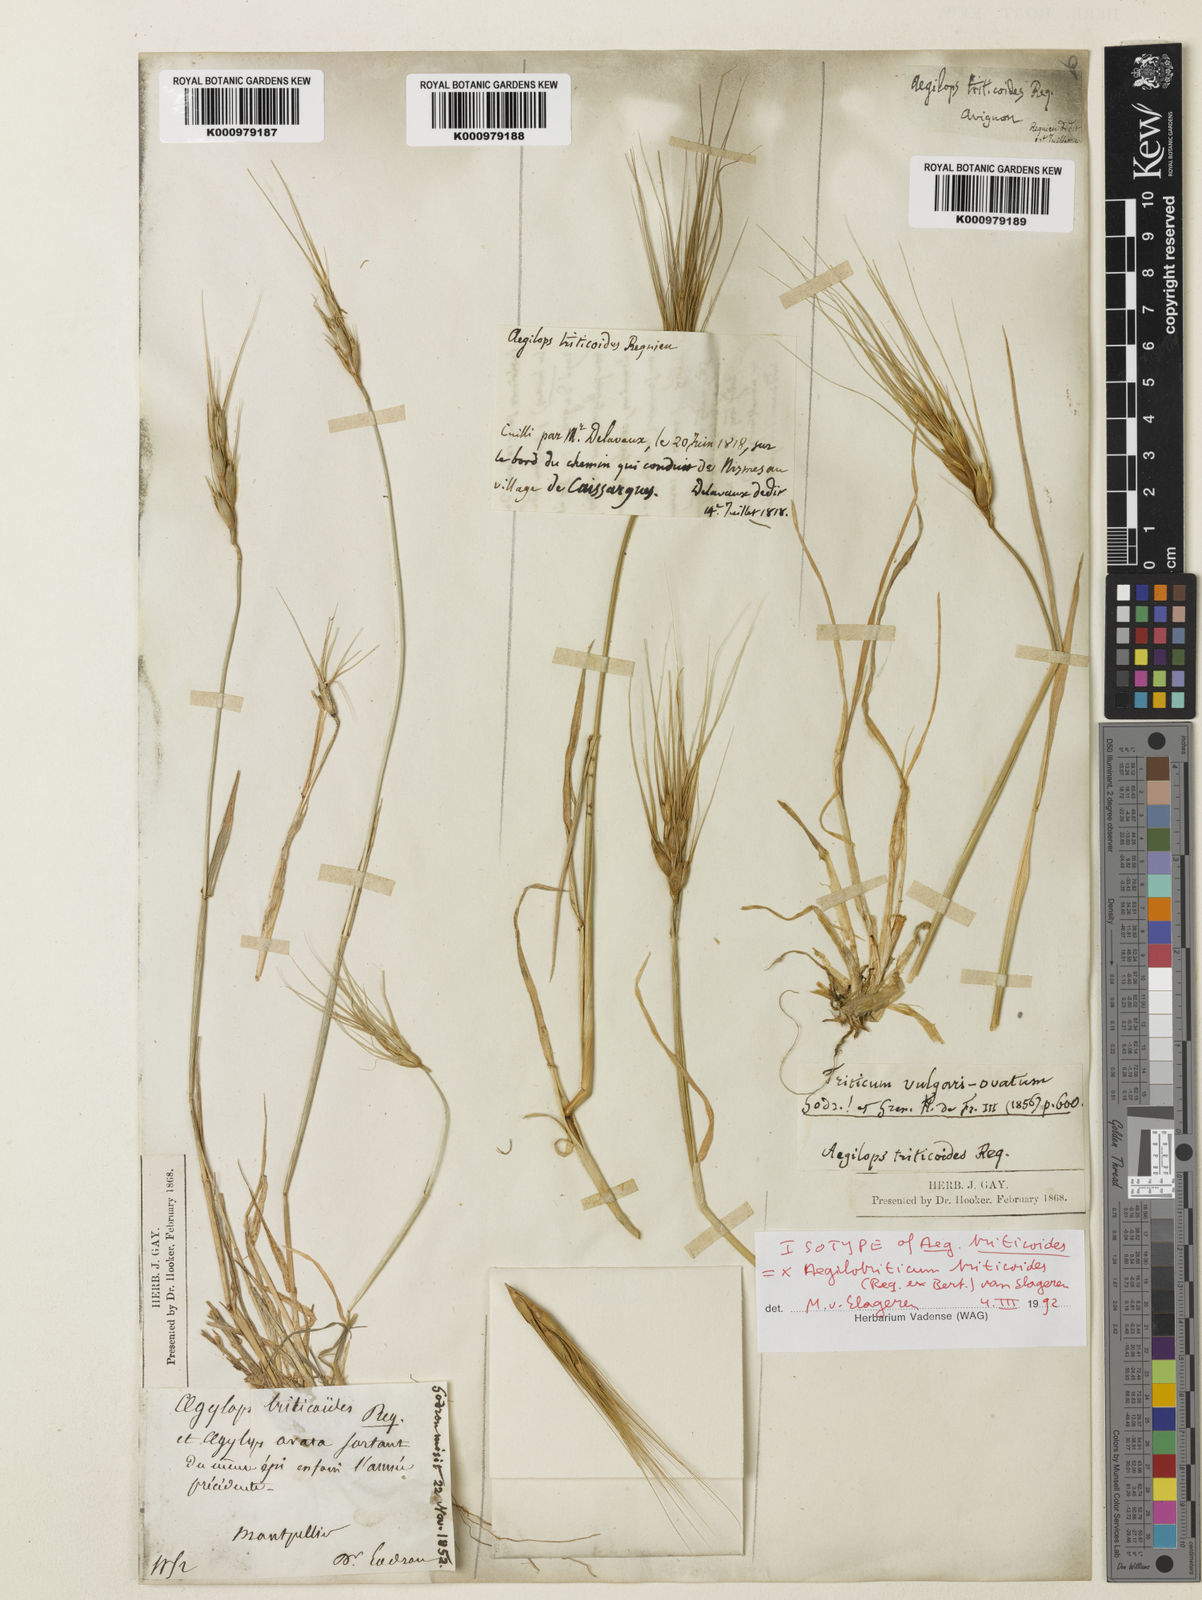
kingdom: Plantae
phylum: Tracheophyta
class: Liliopsida
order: Poales
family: Poaceae
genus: Aegilops
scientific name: Aegilops
